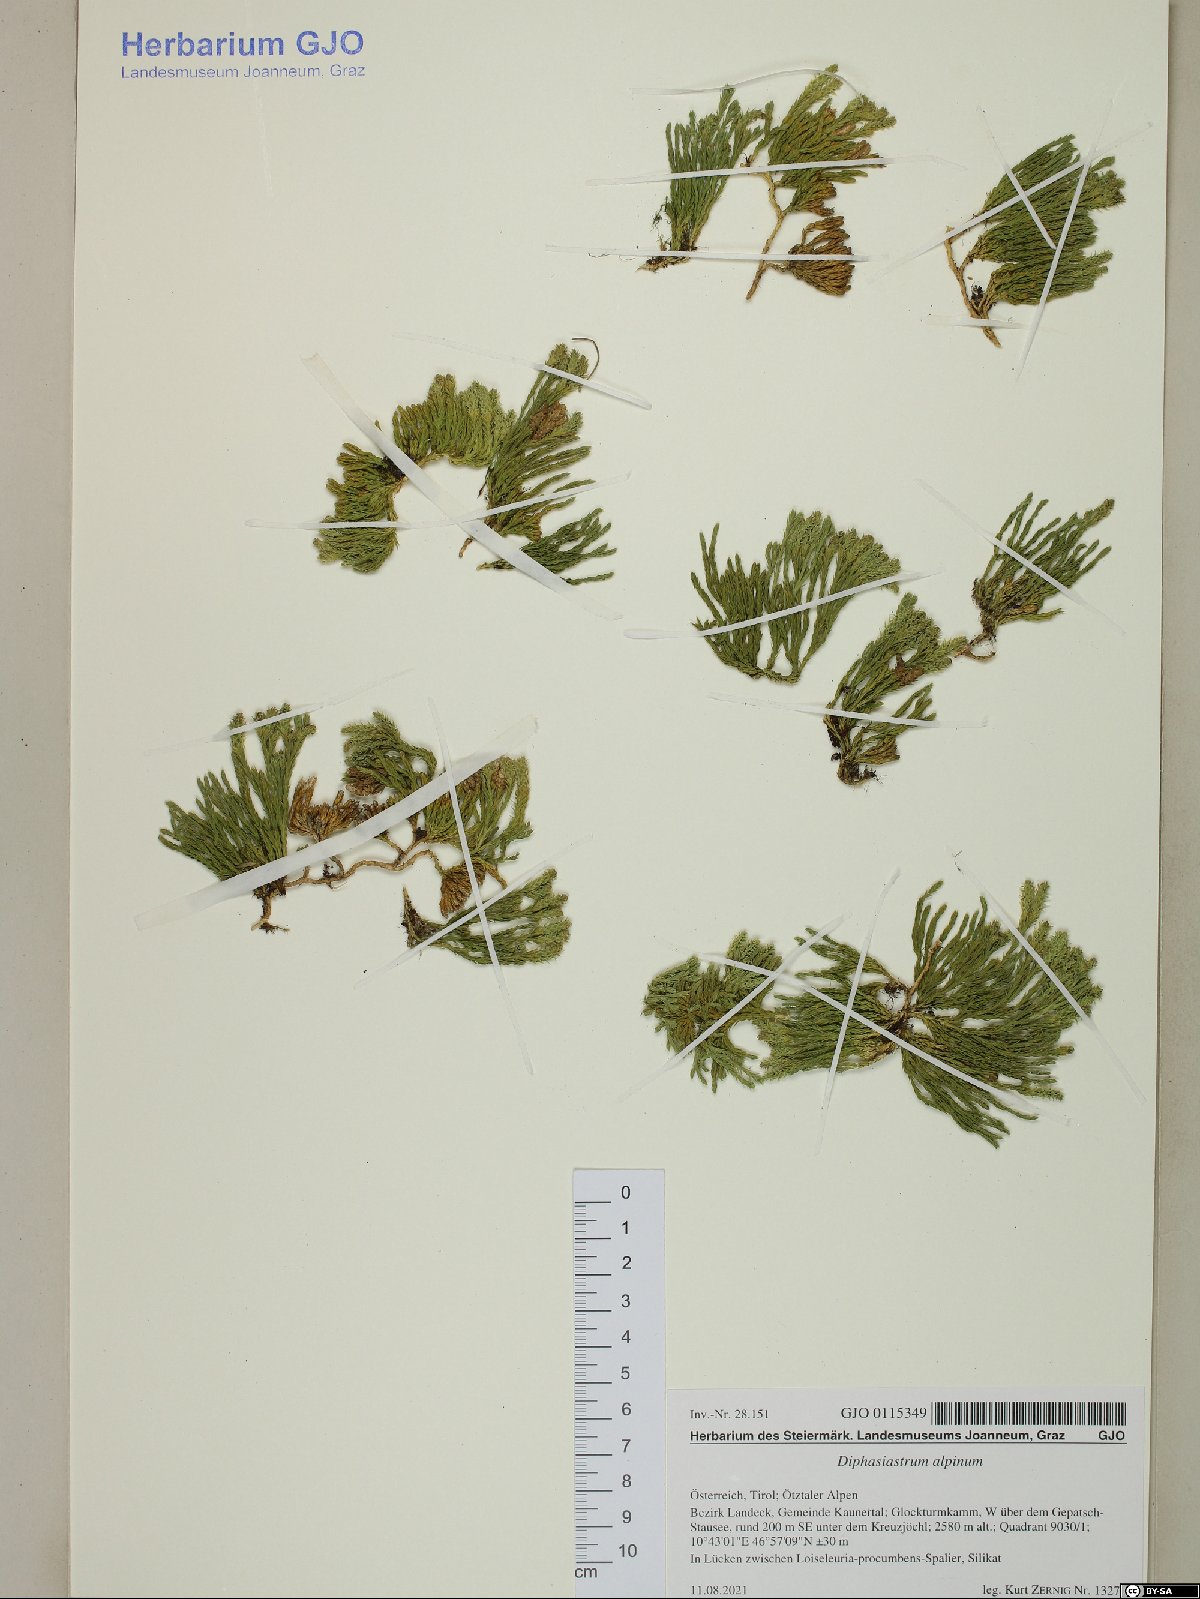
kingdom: Plantae
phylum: Tracheophyta
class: Lycopodiopsida
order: Lycopodiales
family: Lycopodiaceae
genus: Diphasiastrum
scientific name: Diphasiastrum alpinum
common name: Alpine clubmoss
